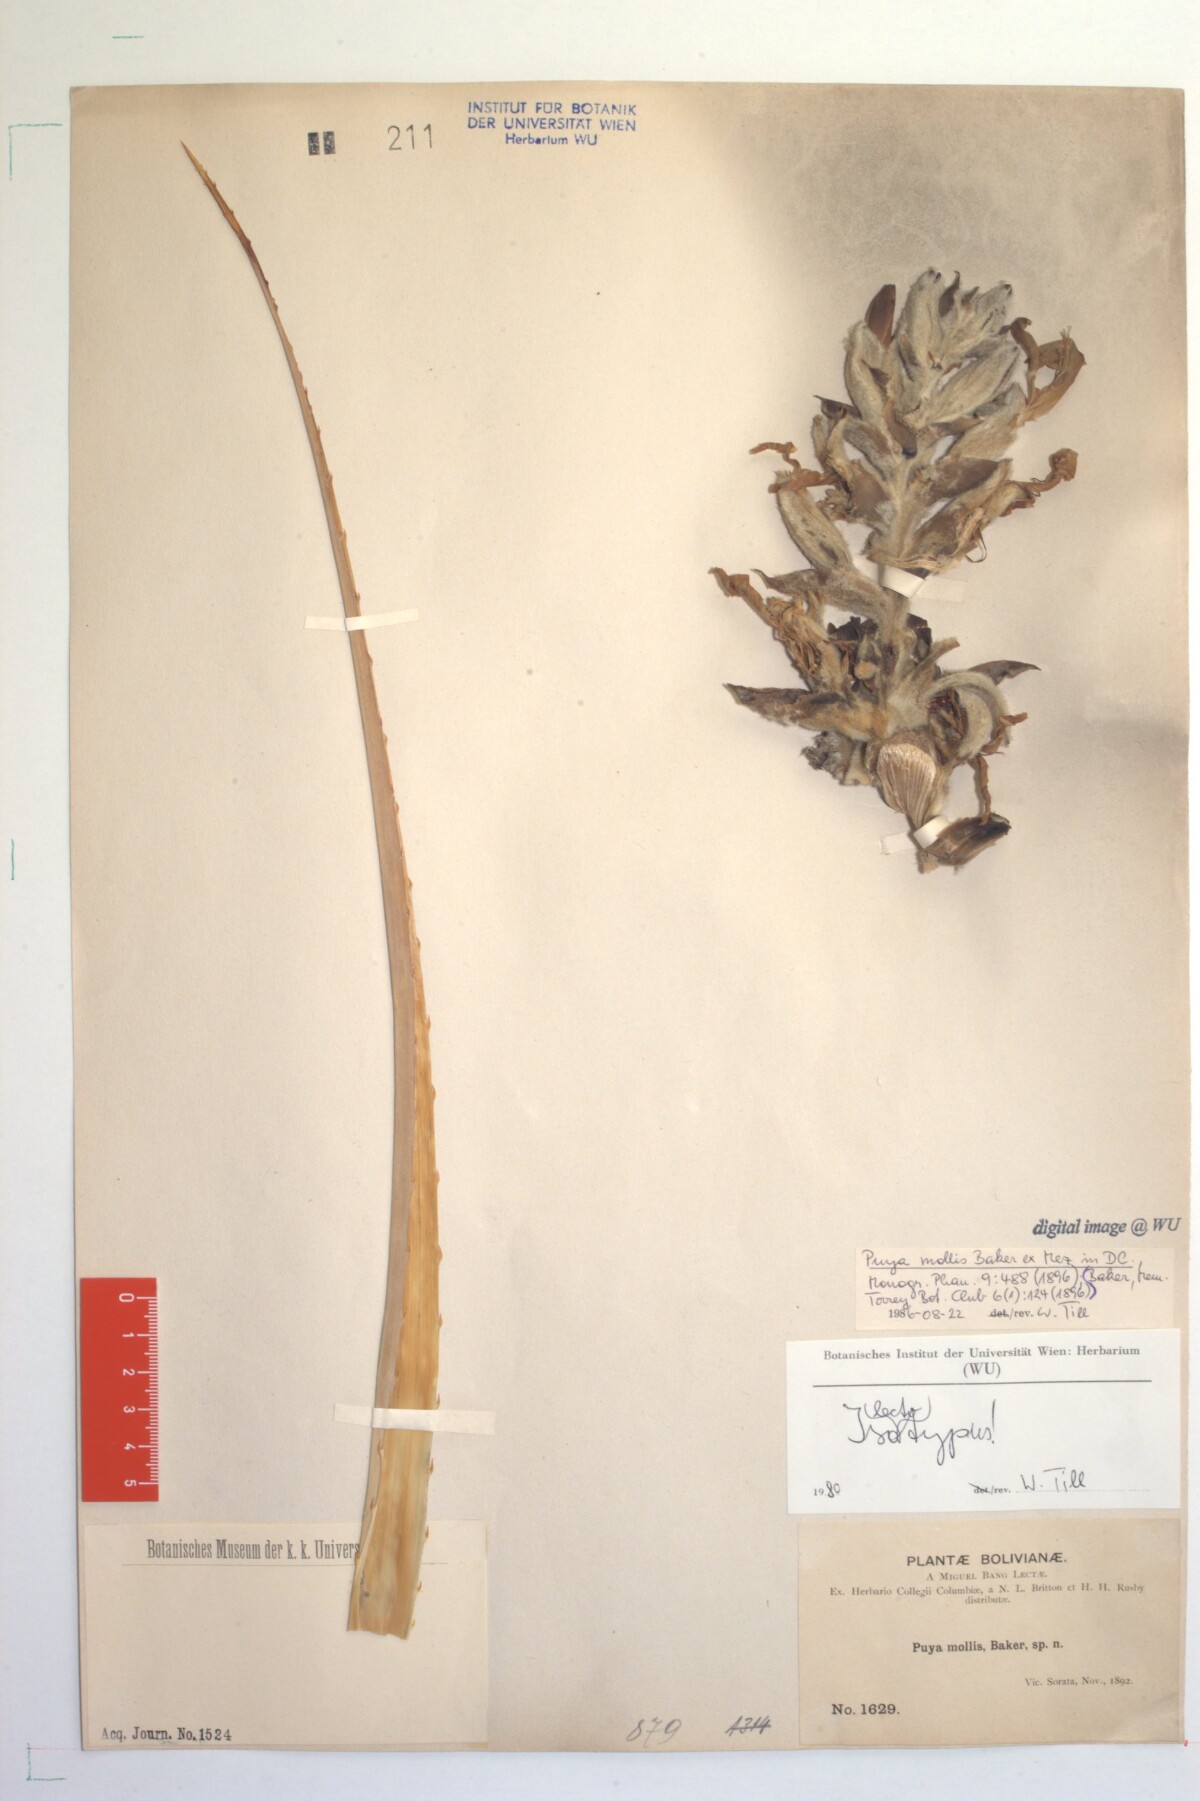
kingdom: Plantae
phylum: Tracheophyta
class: Liliopsida
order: Poales
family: Bromeliaceae
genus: Puya
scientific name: Puya mollis
